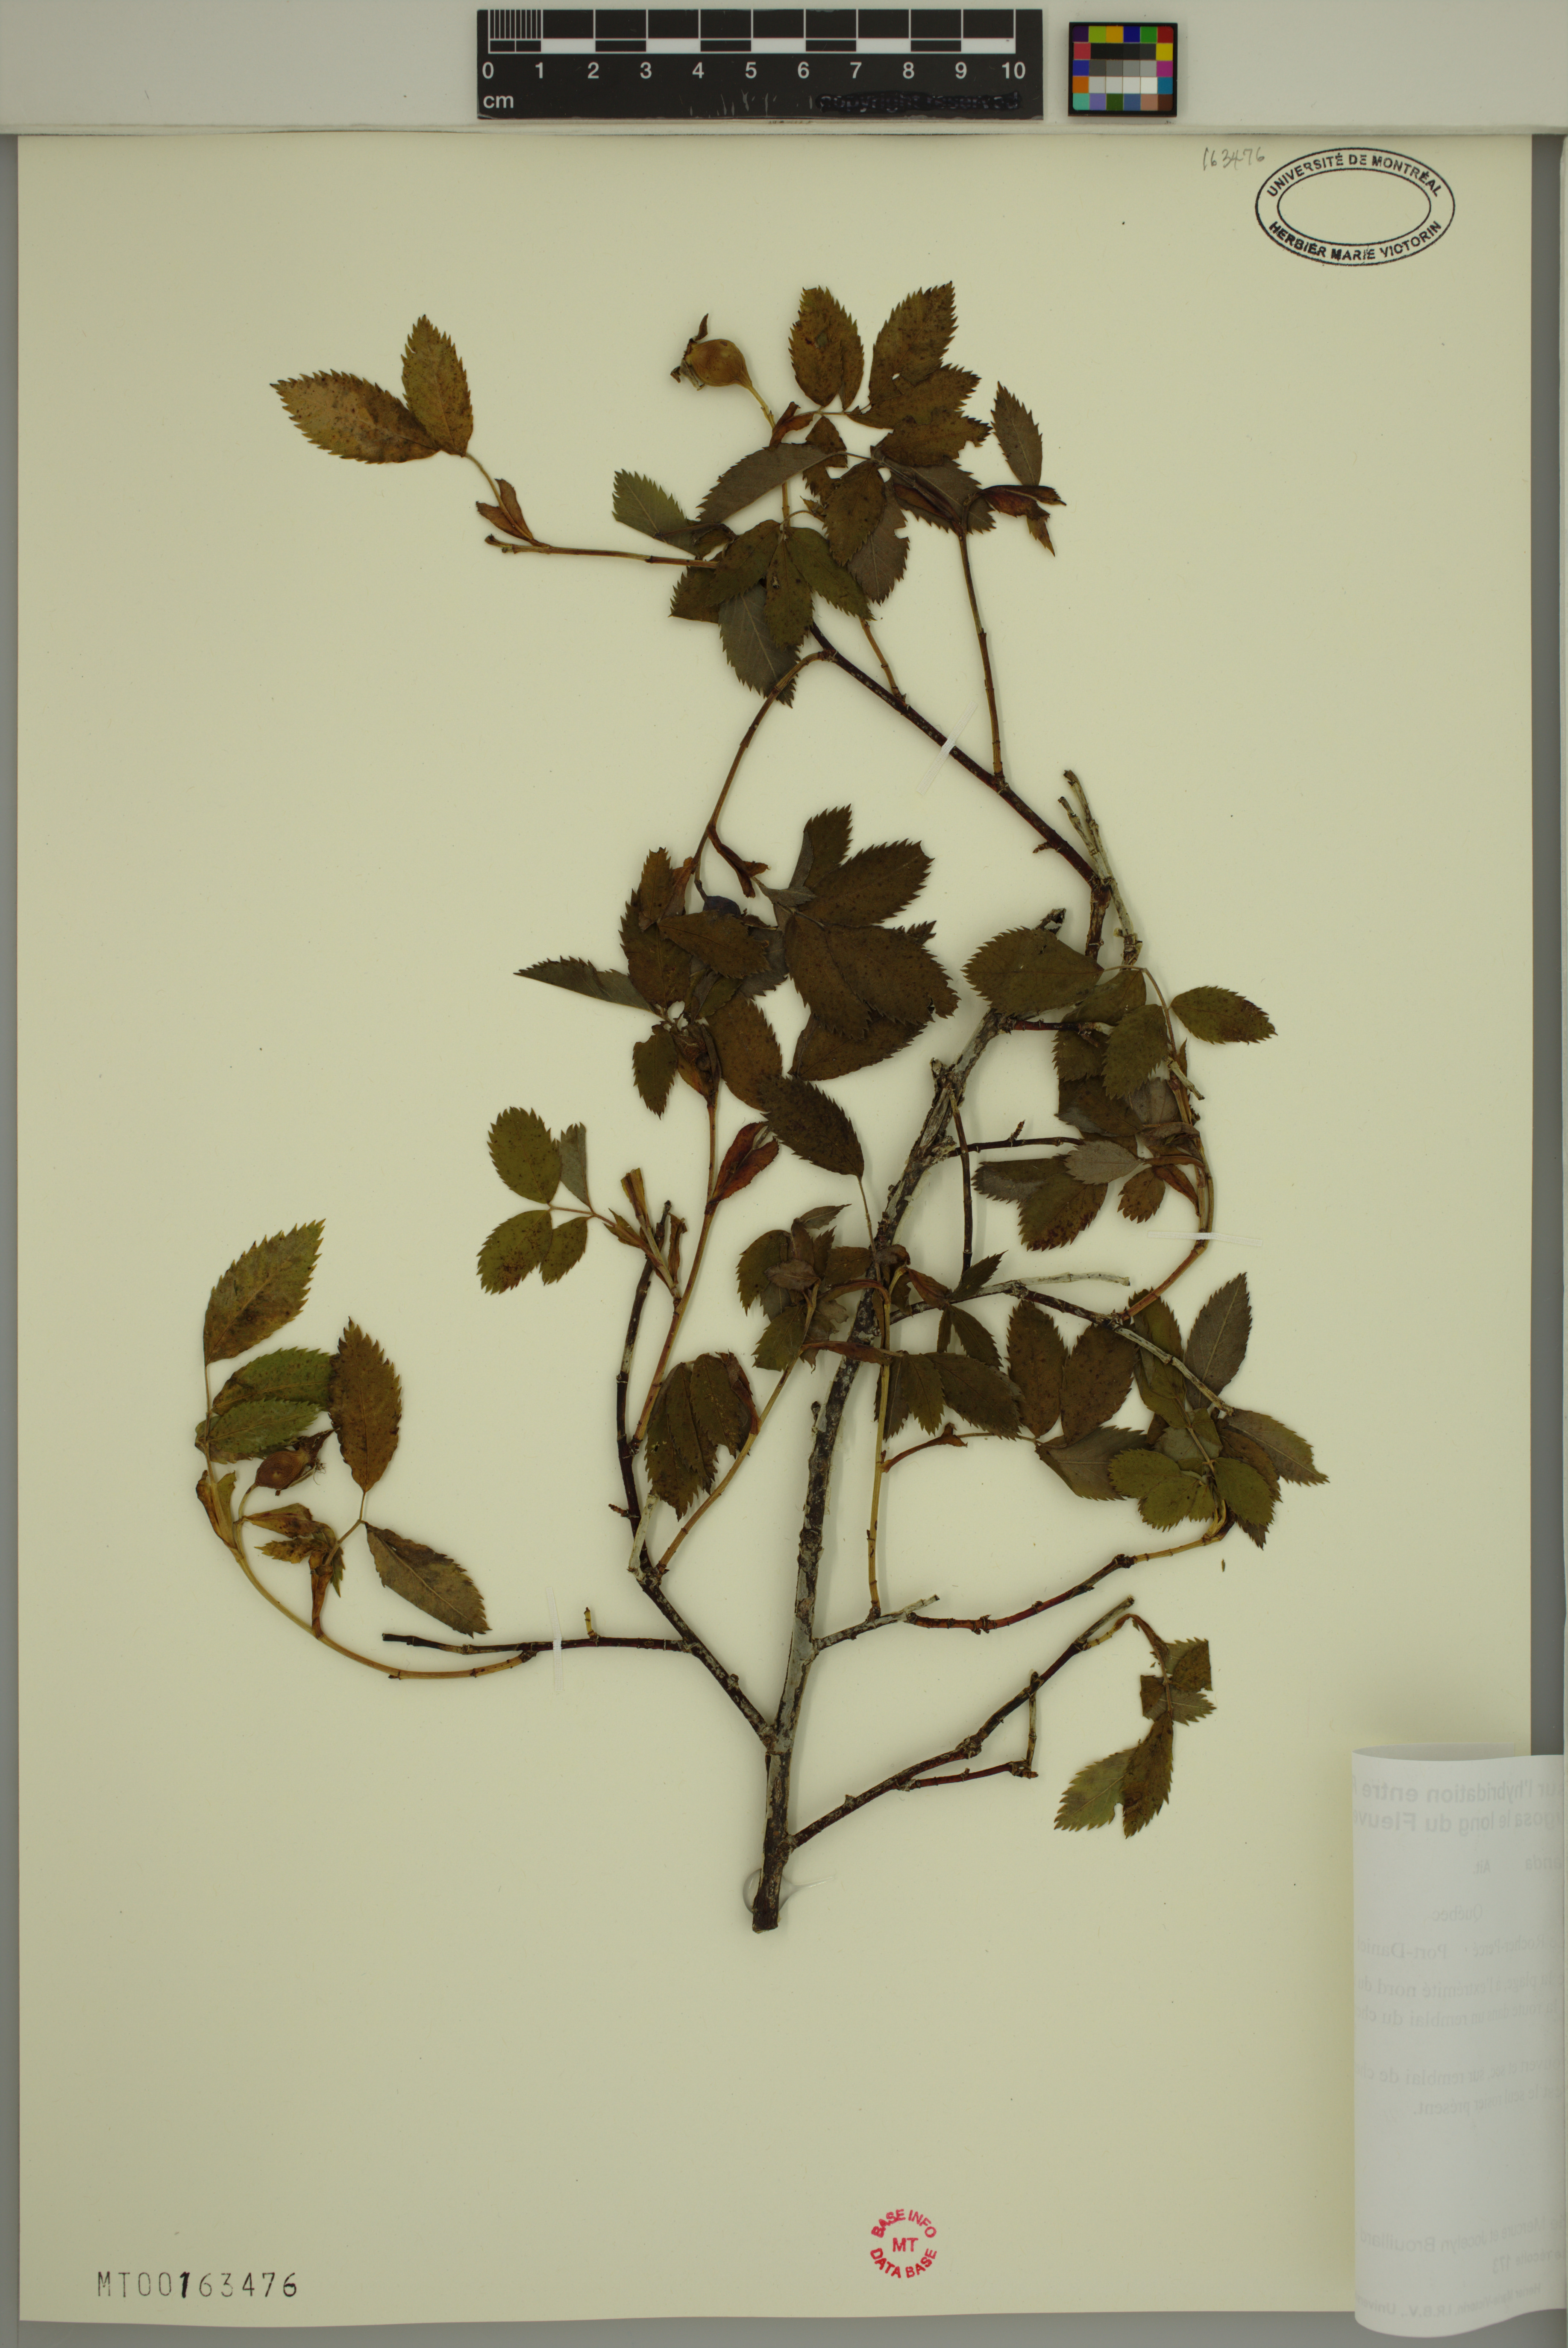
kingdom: Plantae
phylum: Tracheophyta
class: Magnoliopsida
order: Rosales
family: Rosaceae
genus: Rosa
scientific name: Rosa blanda
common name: Smooth rose
